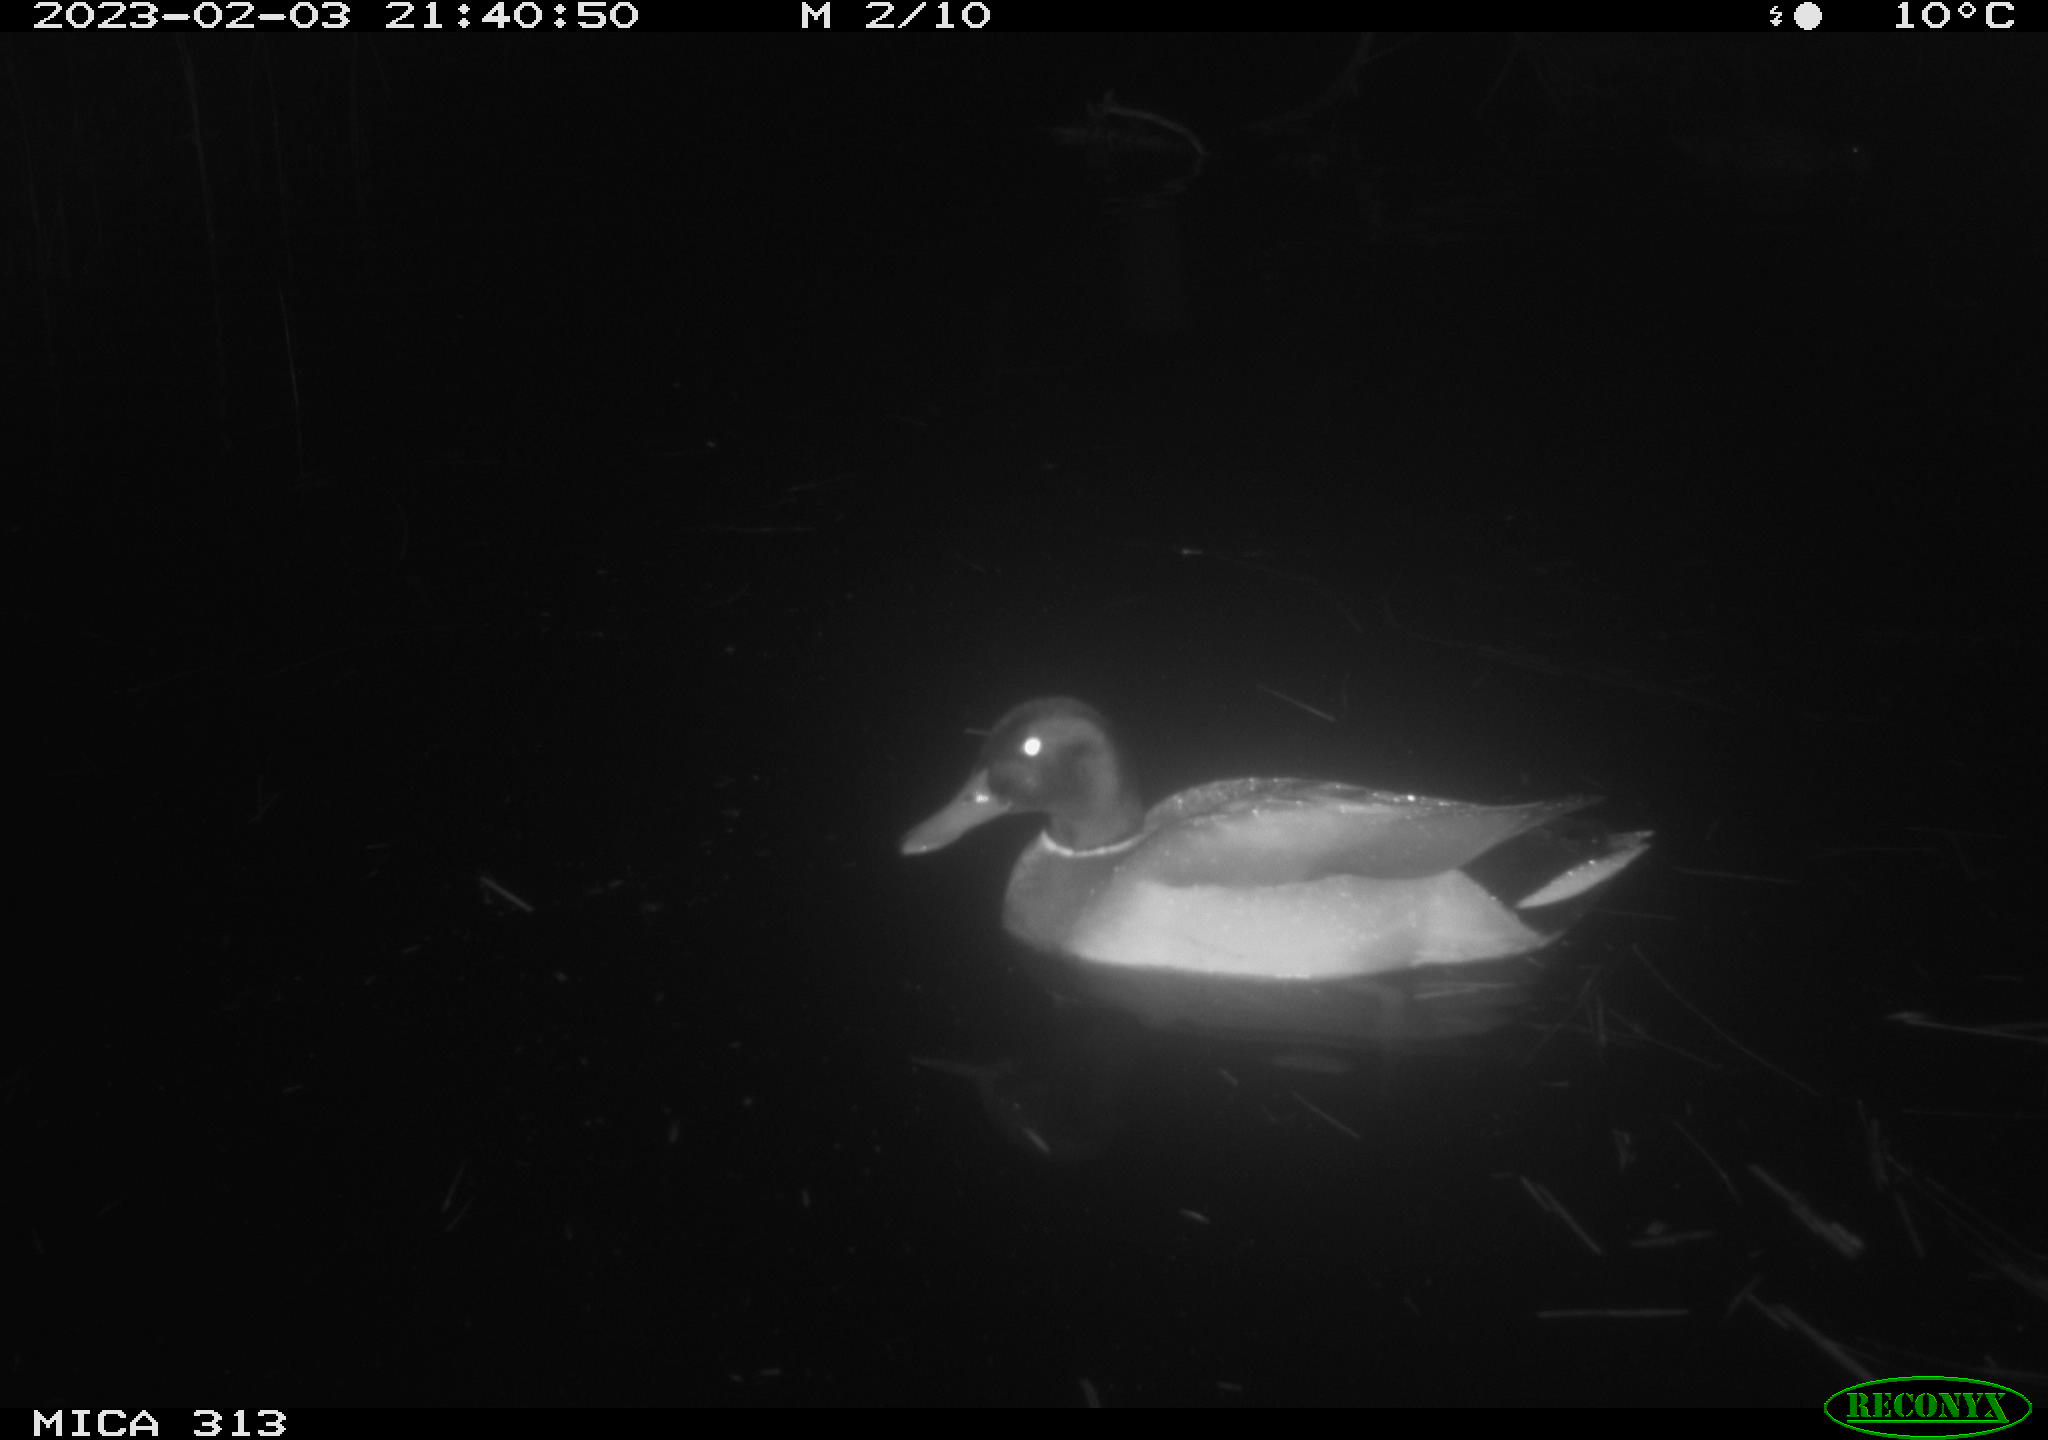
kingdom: Animalia
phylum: Chordata
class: Aves
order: Anseriformes
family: Anatidae
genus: Anas
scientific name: Anas
